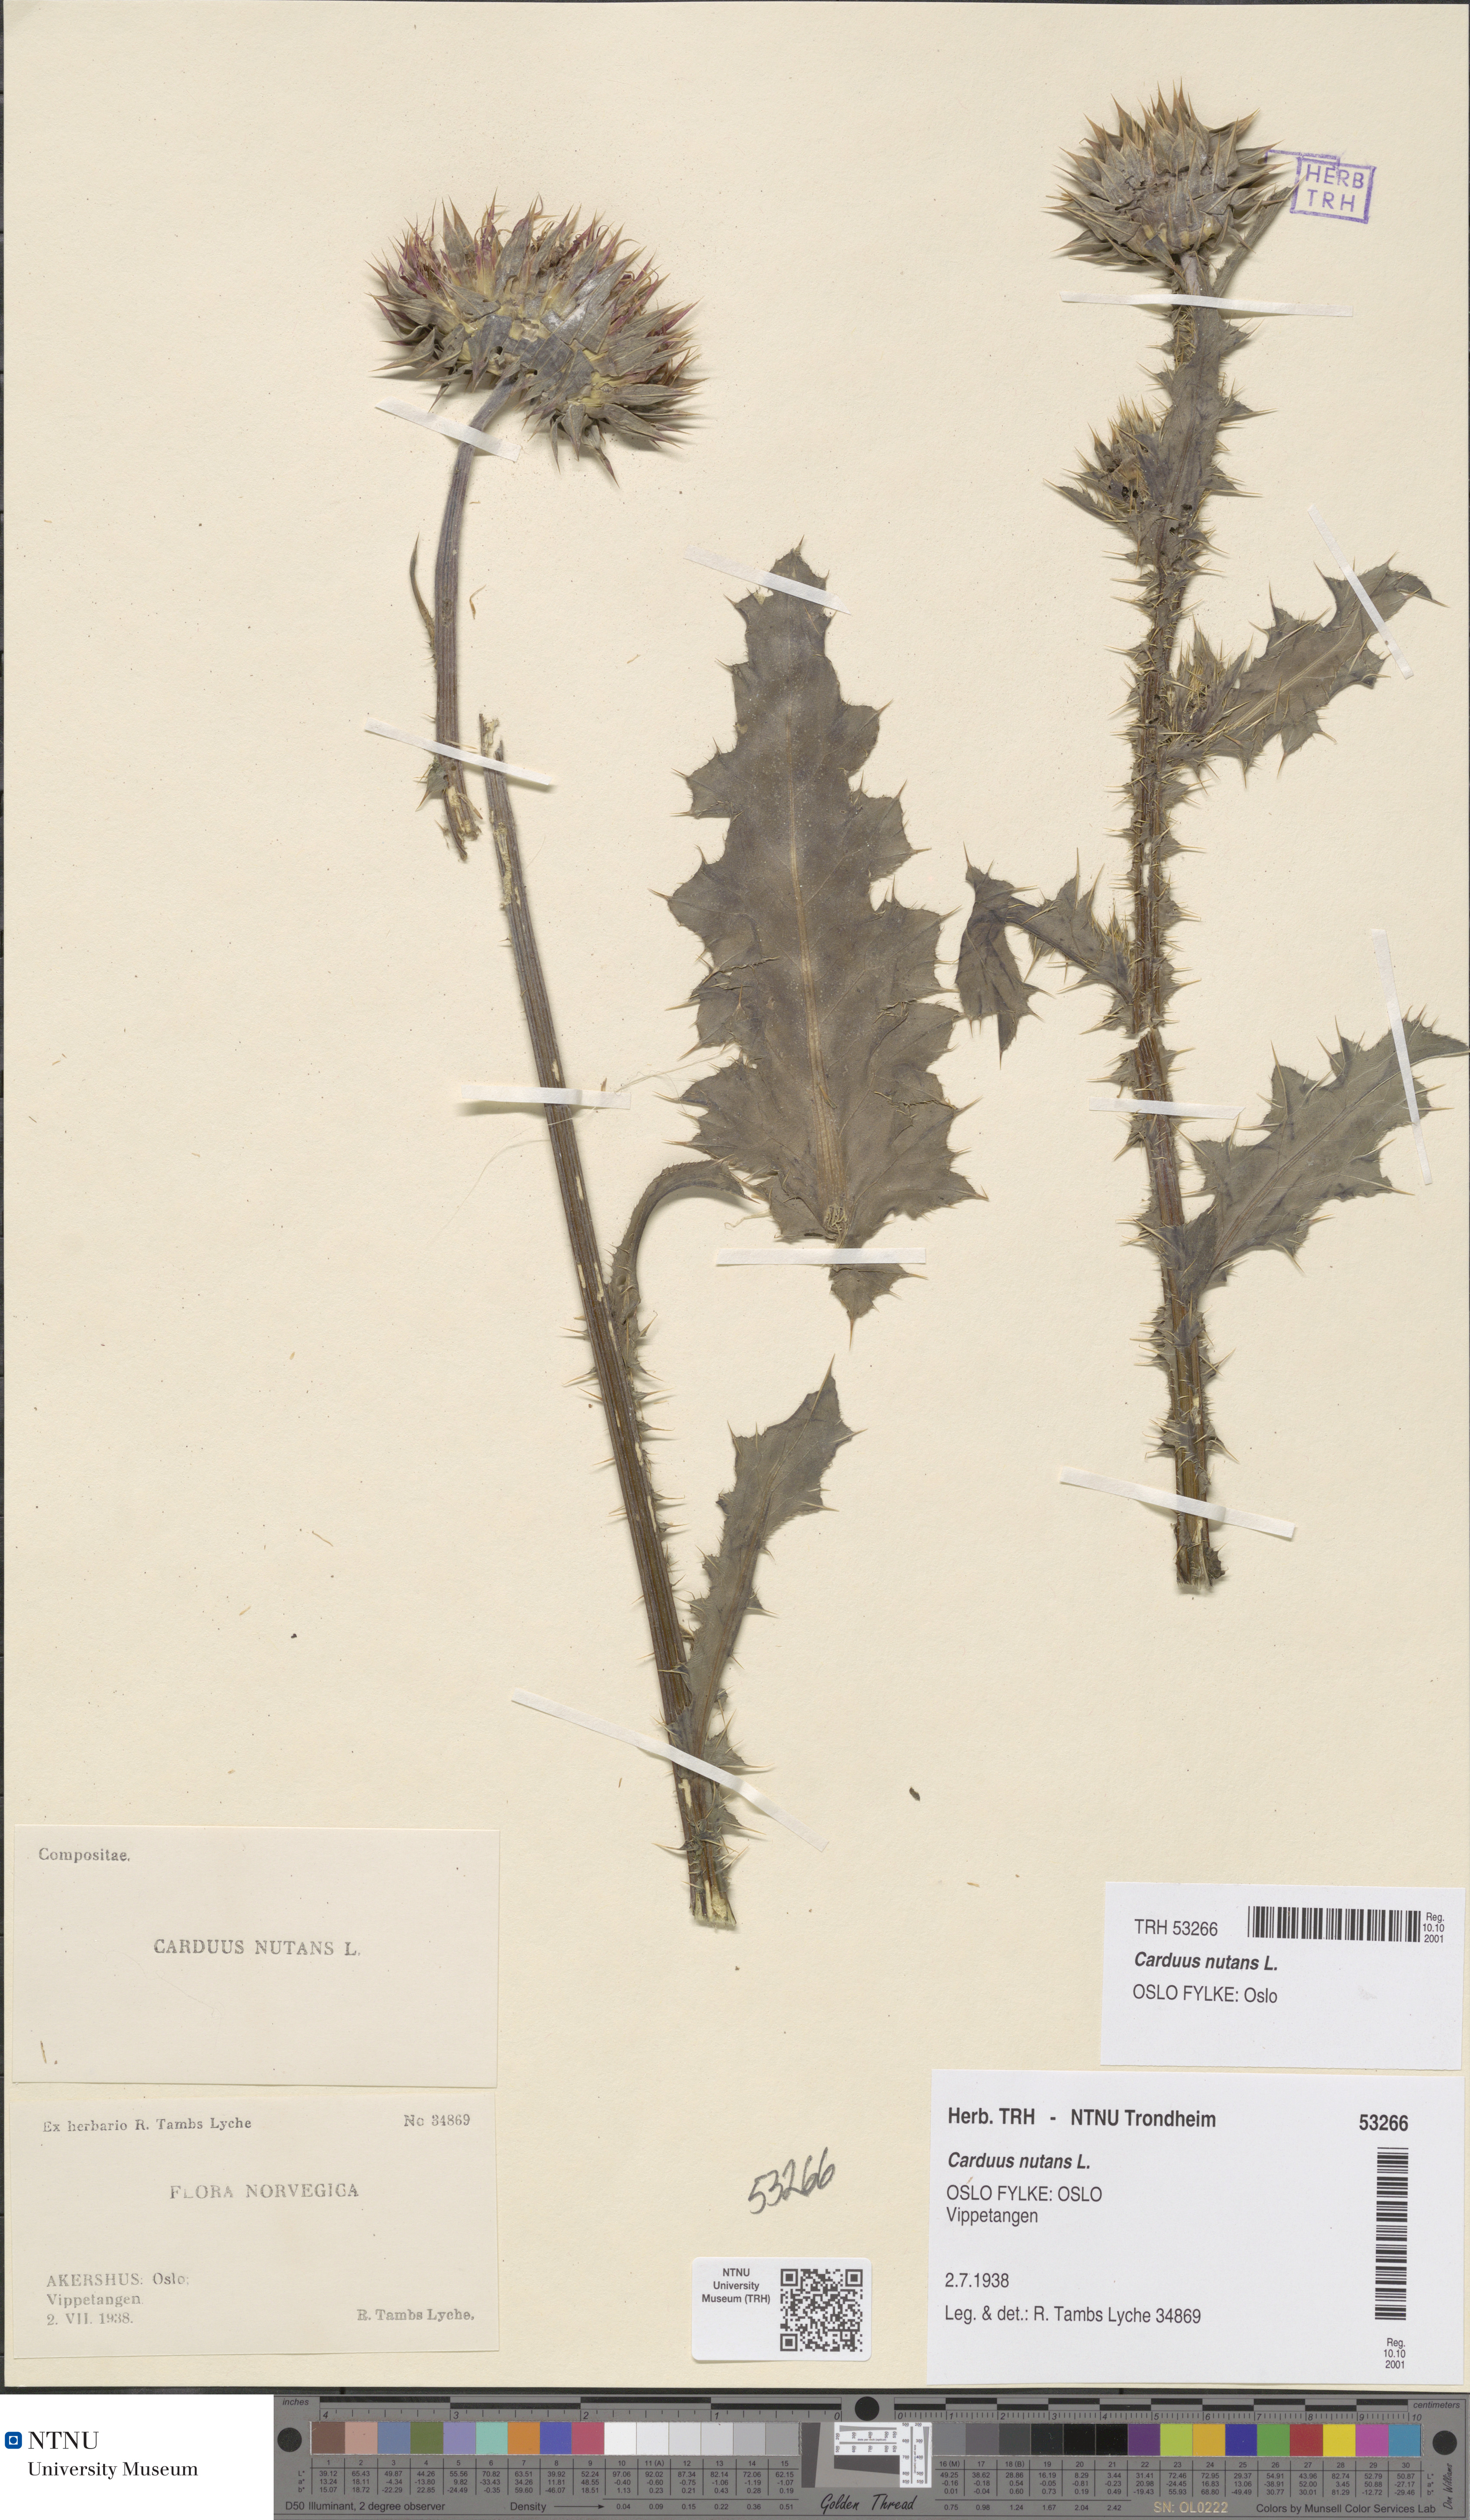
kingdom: Plantae
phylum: Tracheophyta
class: Magnoliopsida
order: Asterales
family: Asteraceae
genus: Carduus
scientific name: Carduus nutans
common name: Musk thistle
